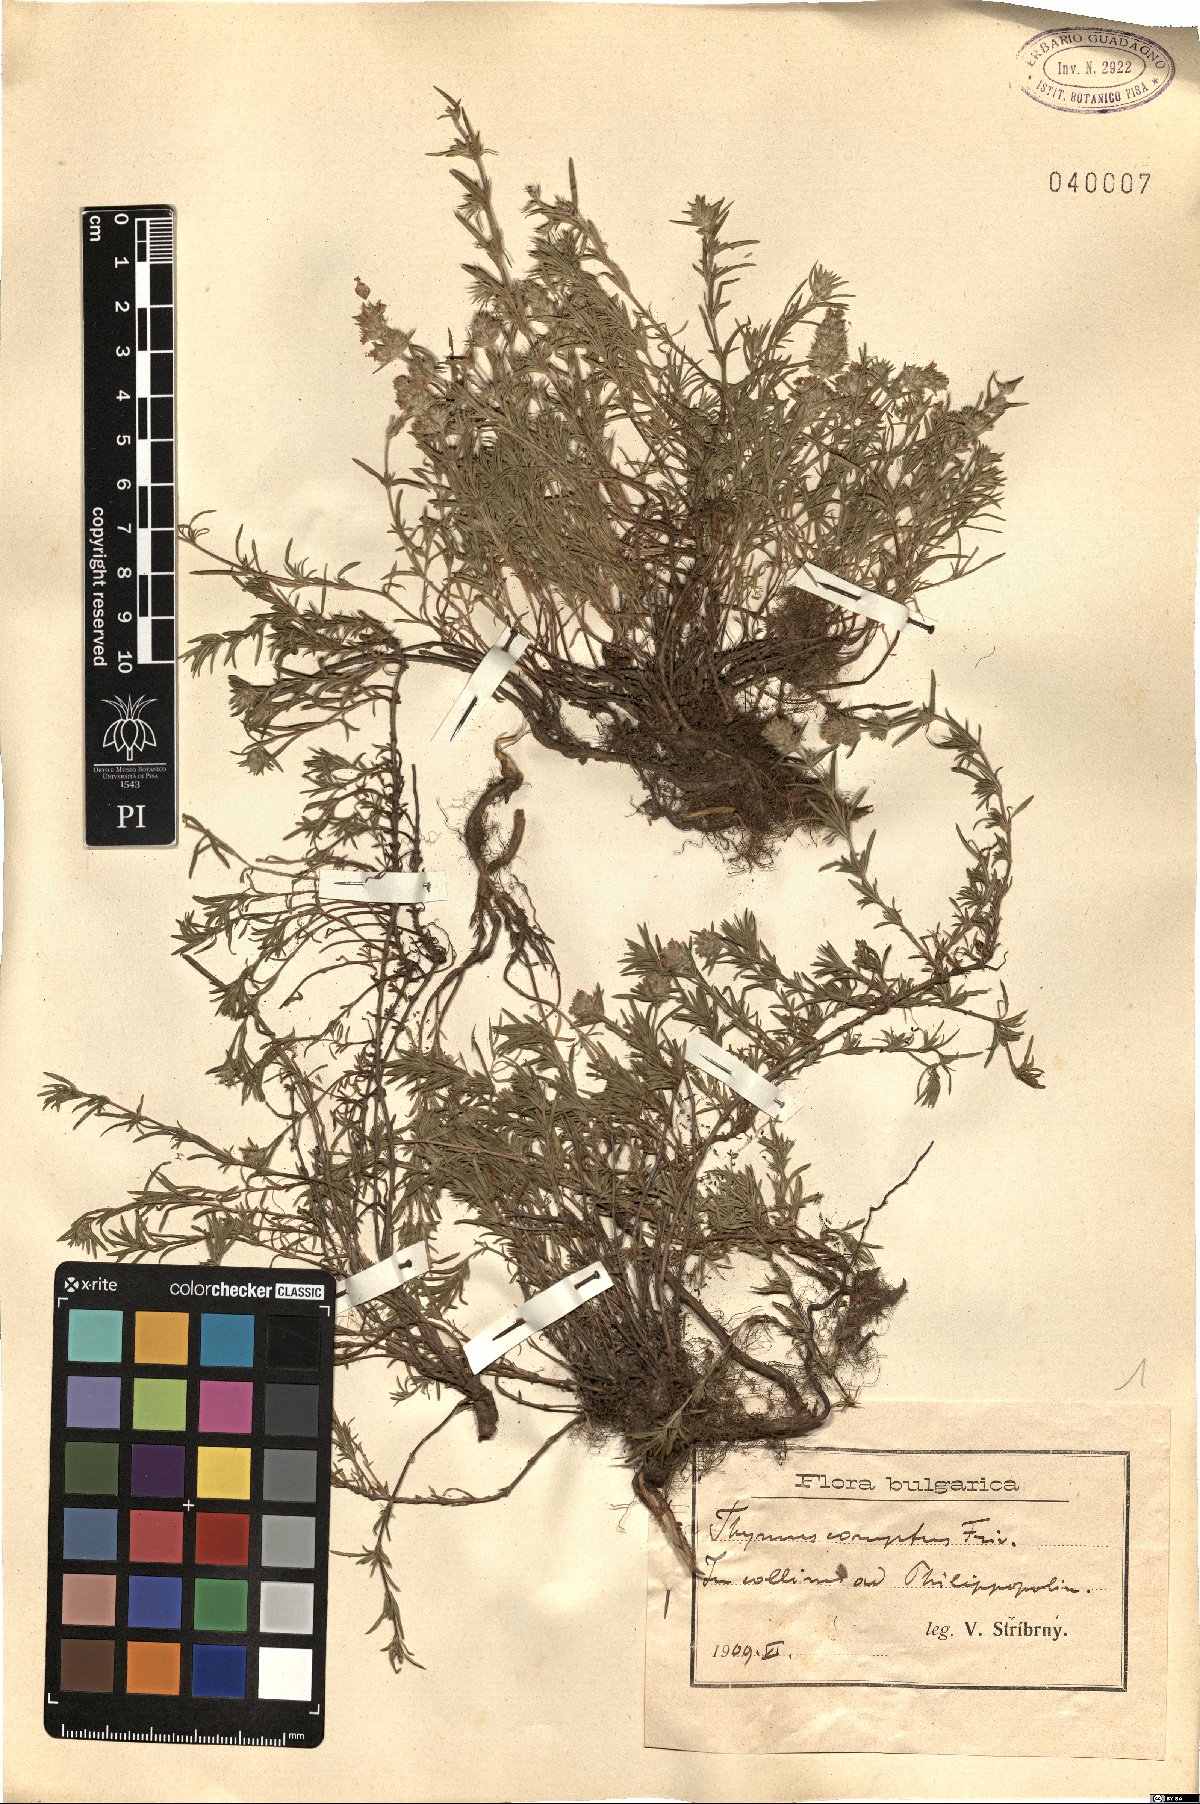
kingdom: Plantae
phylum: Tracheophyta
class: Magnoliopsida
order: Lamiales
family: Lamiaceae
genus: Thymus
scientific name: Thymus comptus
